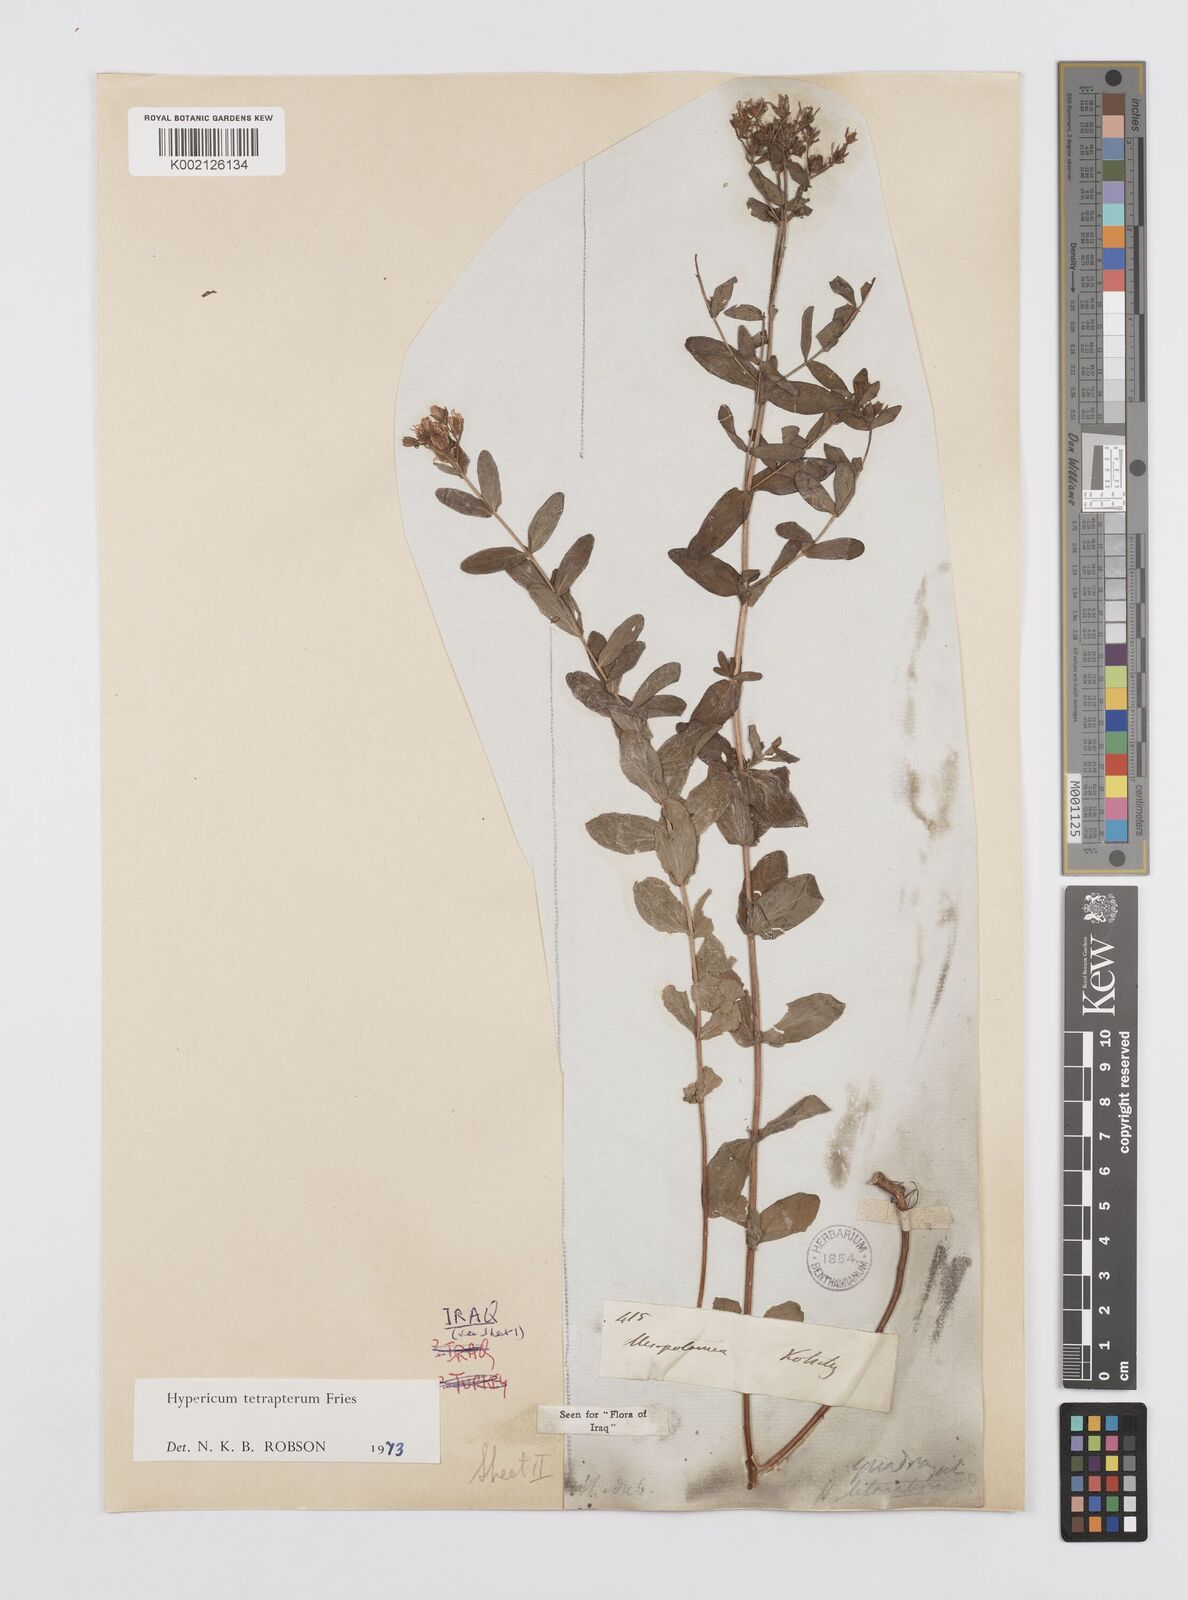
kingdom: Plantae
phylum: Tracheophyta
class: Magnoliopsida
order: Malpighiales
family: Hypericaceae
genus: Hypericum
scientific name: Hypericum tetrapterum
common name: Square-stalked st. john's-wort
